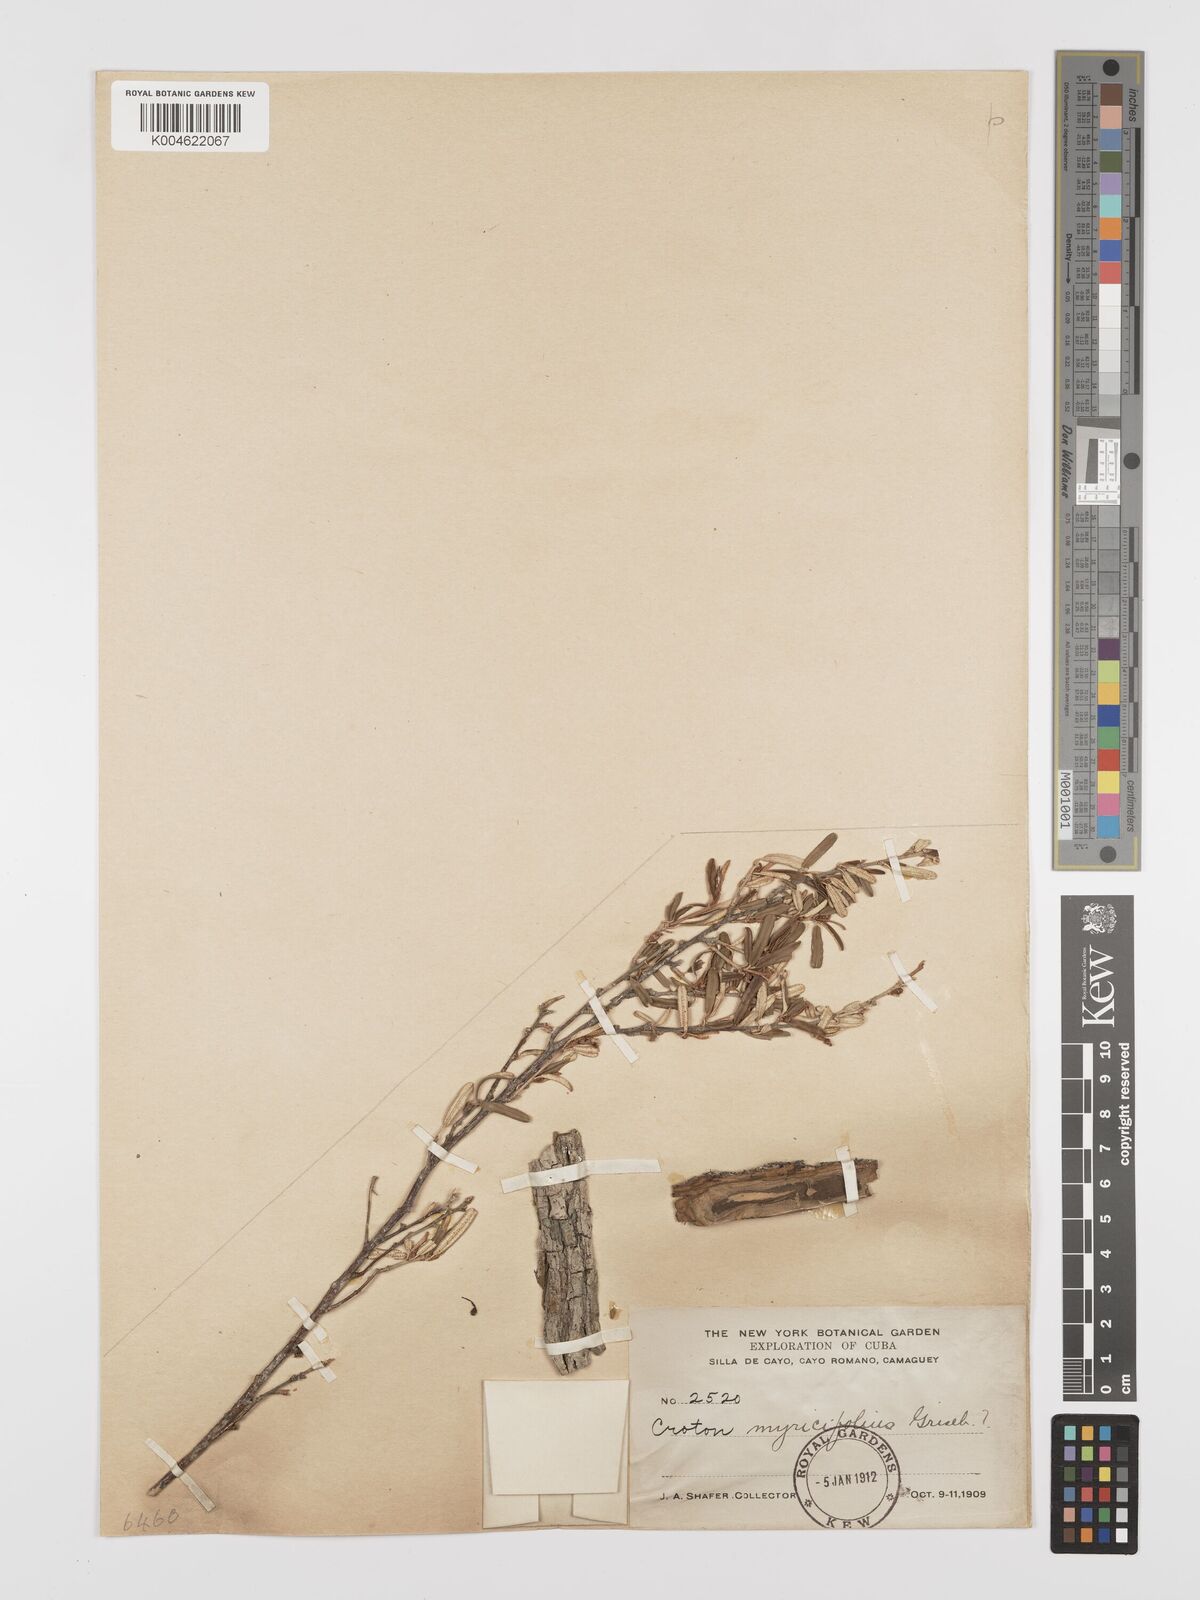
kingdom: Plantae
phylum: Tracheophyta
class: Magnoliopsida
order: Malpighiales
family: Euphorbiaceae
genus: Croton
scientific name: Croton myricifolius
